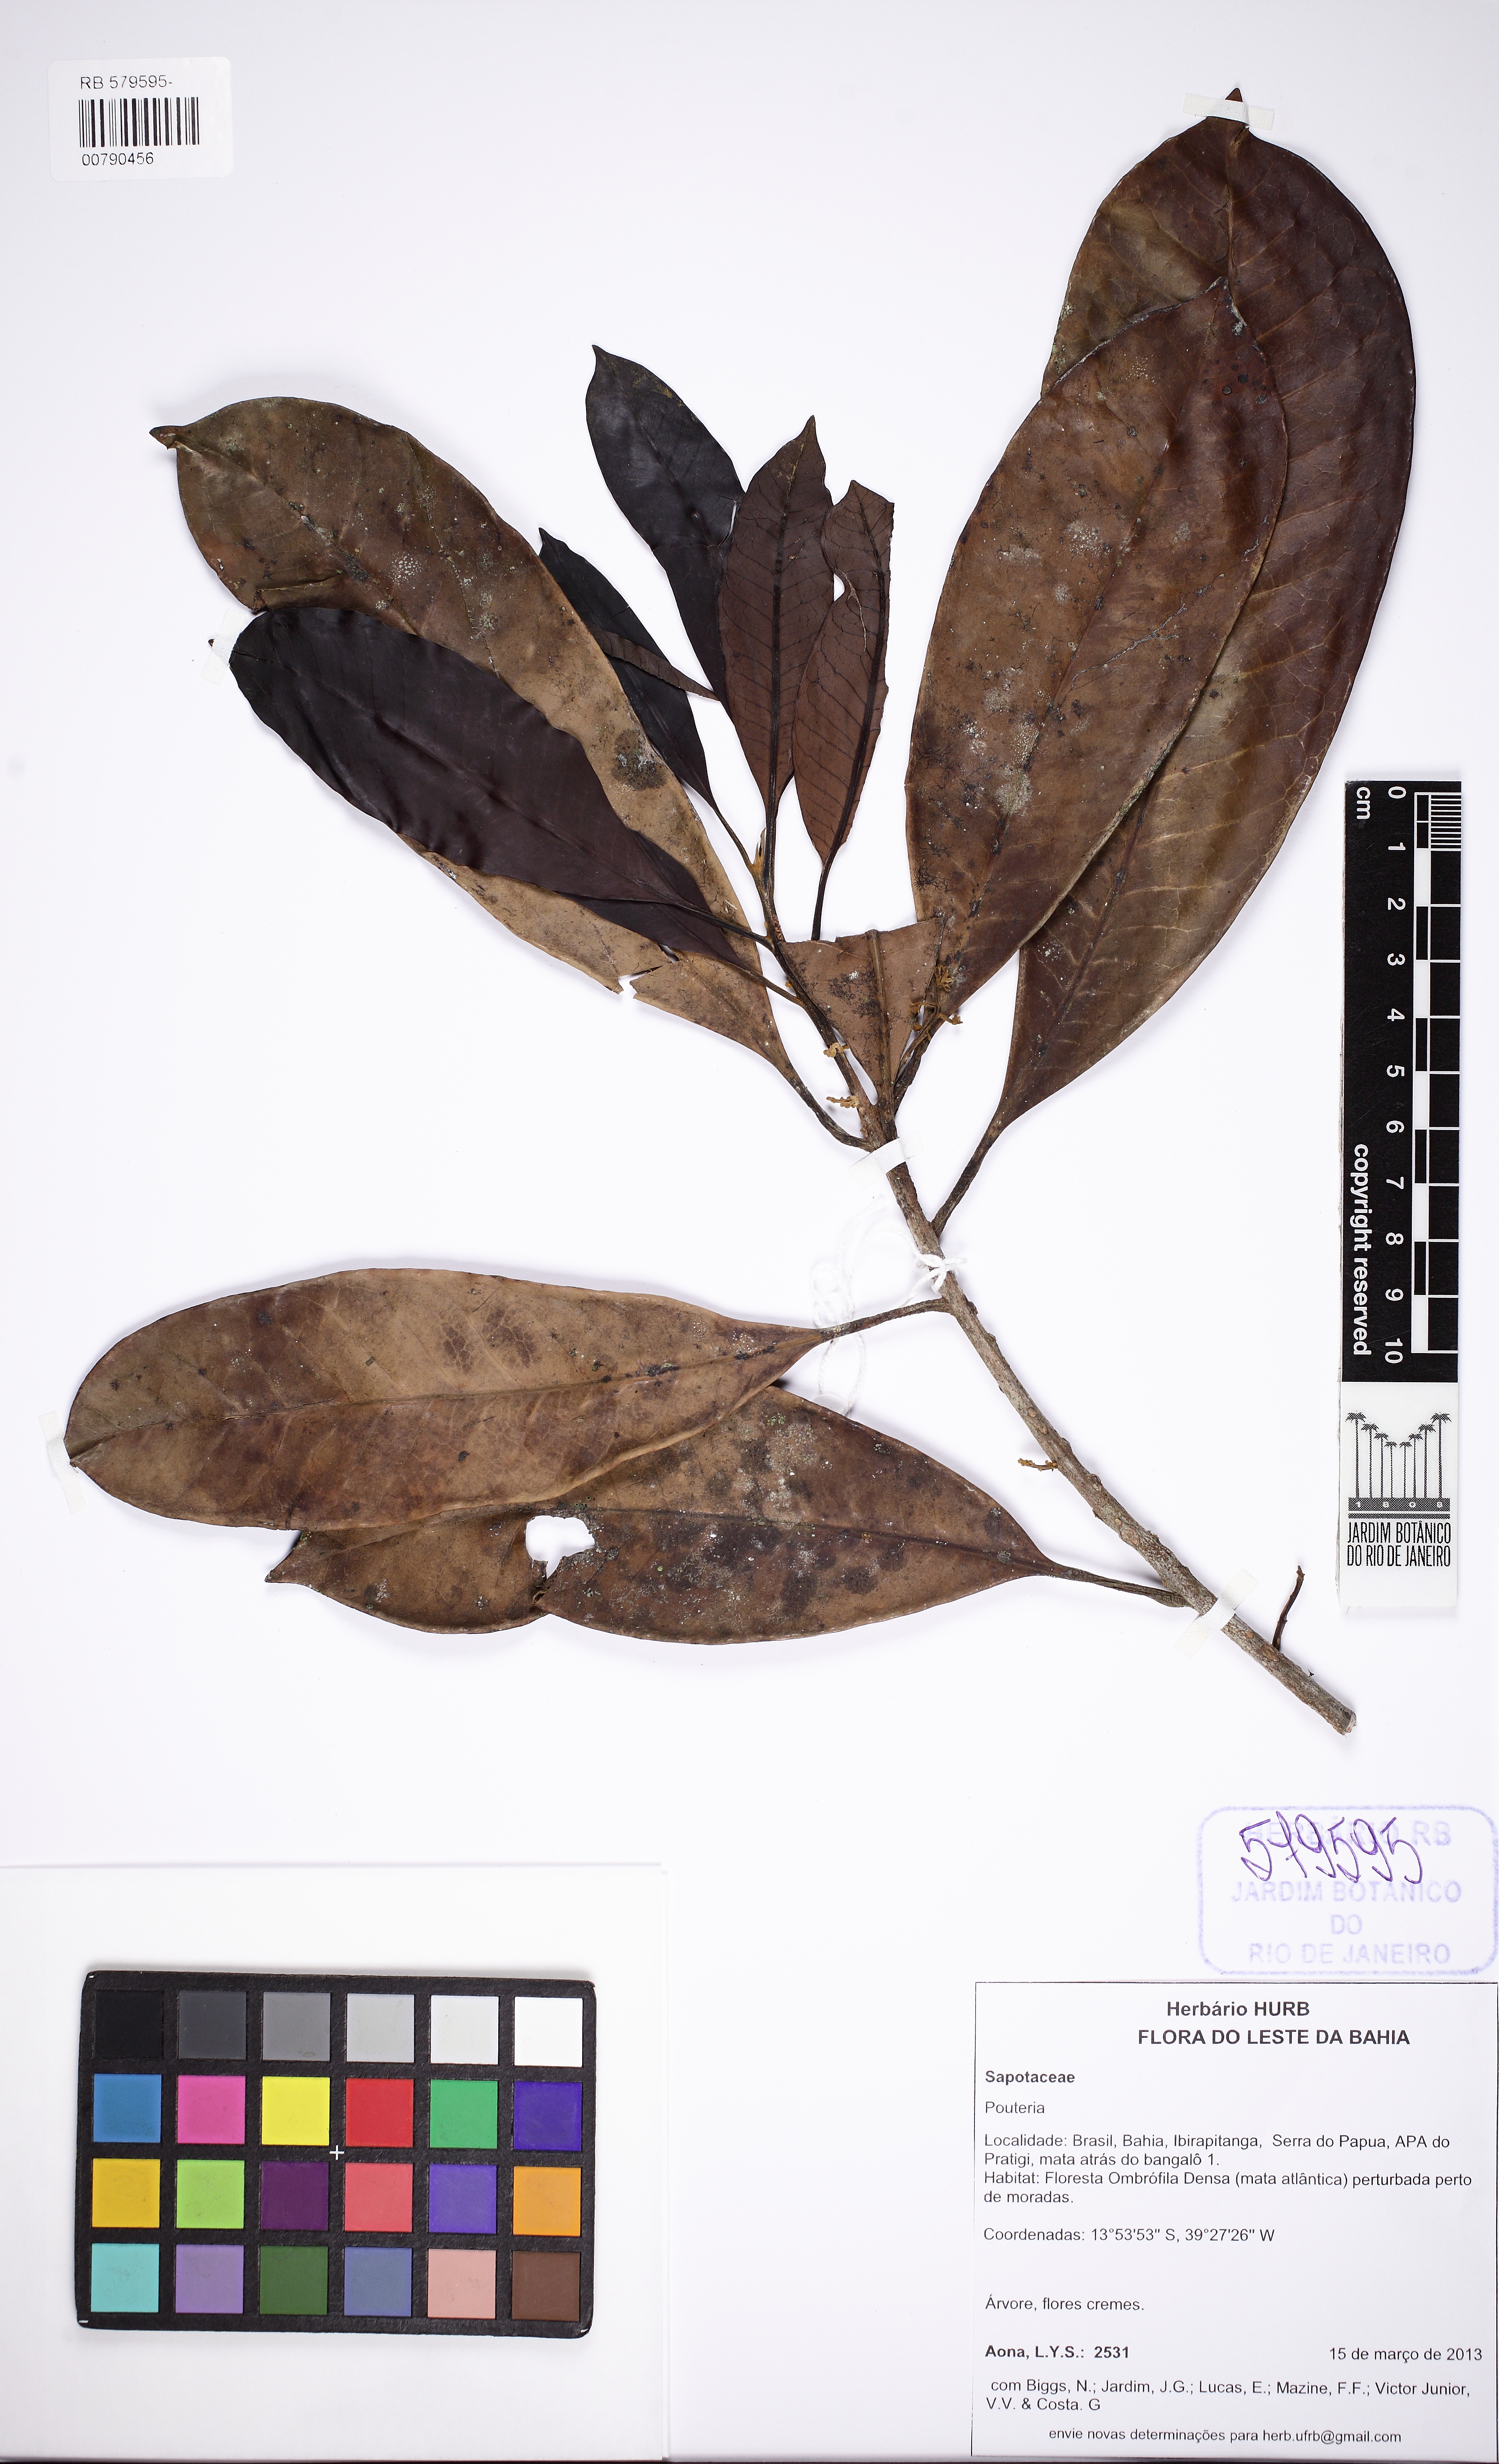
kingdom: Plantae
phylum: Tracheophyta
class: Magnoliopsida
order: Ericales
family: Sapotaceae
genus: Pouteria
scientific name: Pouteria macahensis
